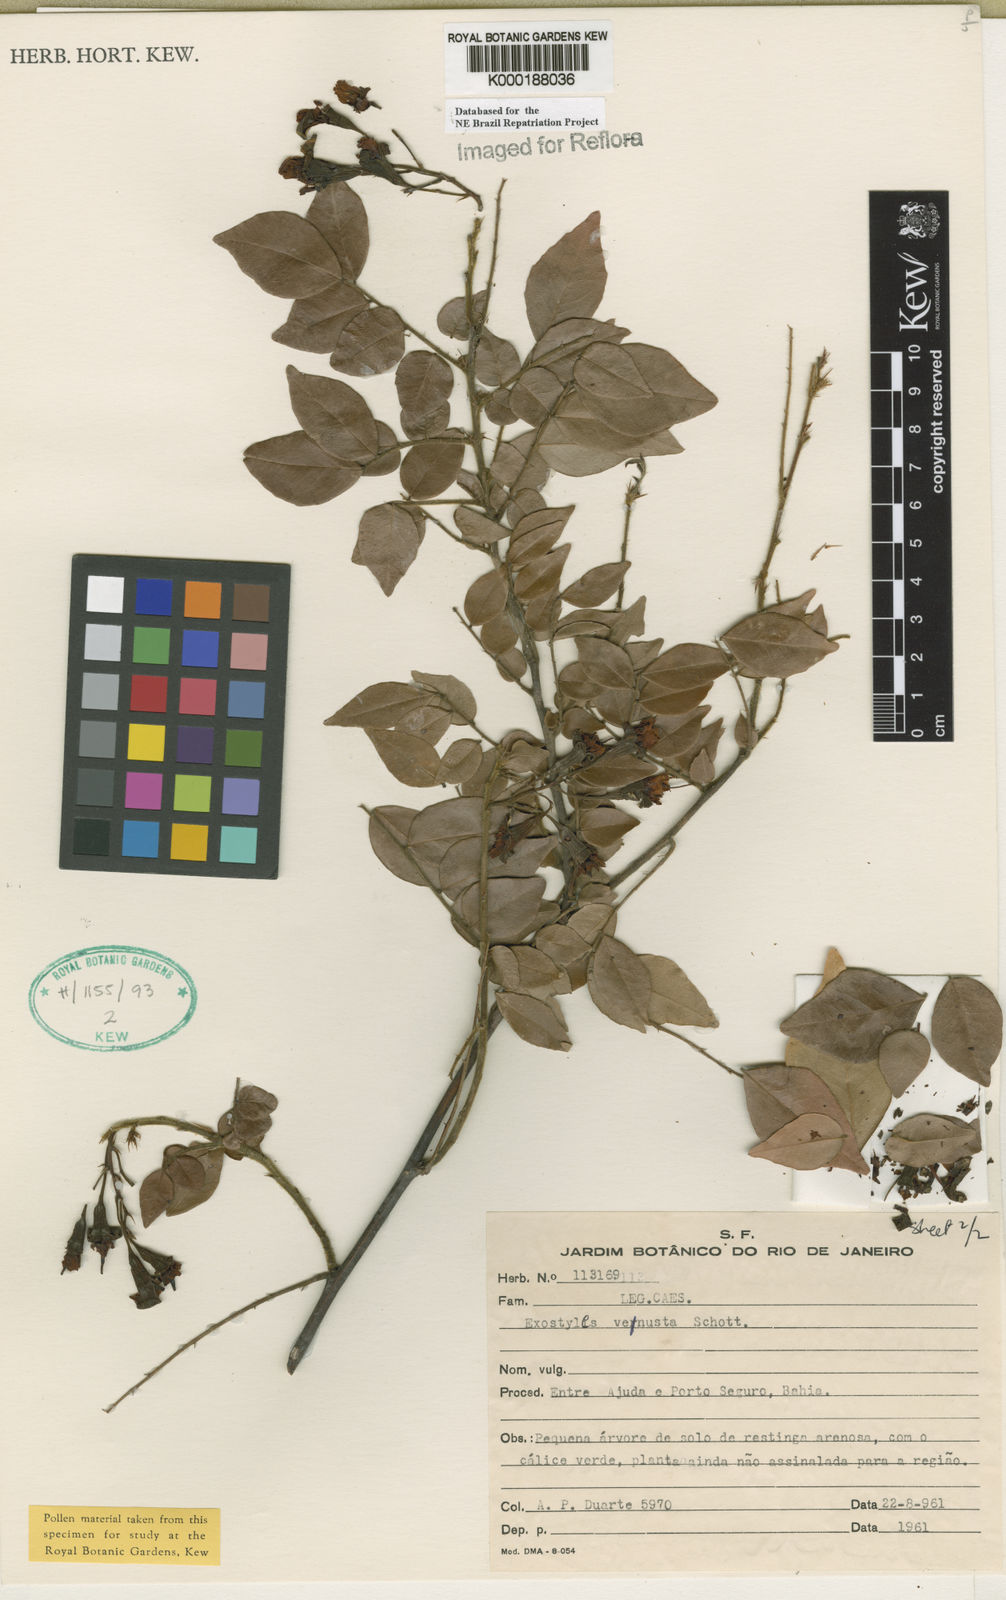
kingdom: Plantae
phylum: Tracheophyta
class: Magnoliopsida
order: Fabales
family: Fabaceae
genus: Exostyles
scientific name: Exostyles
